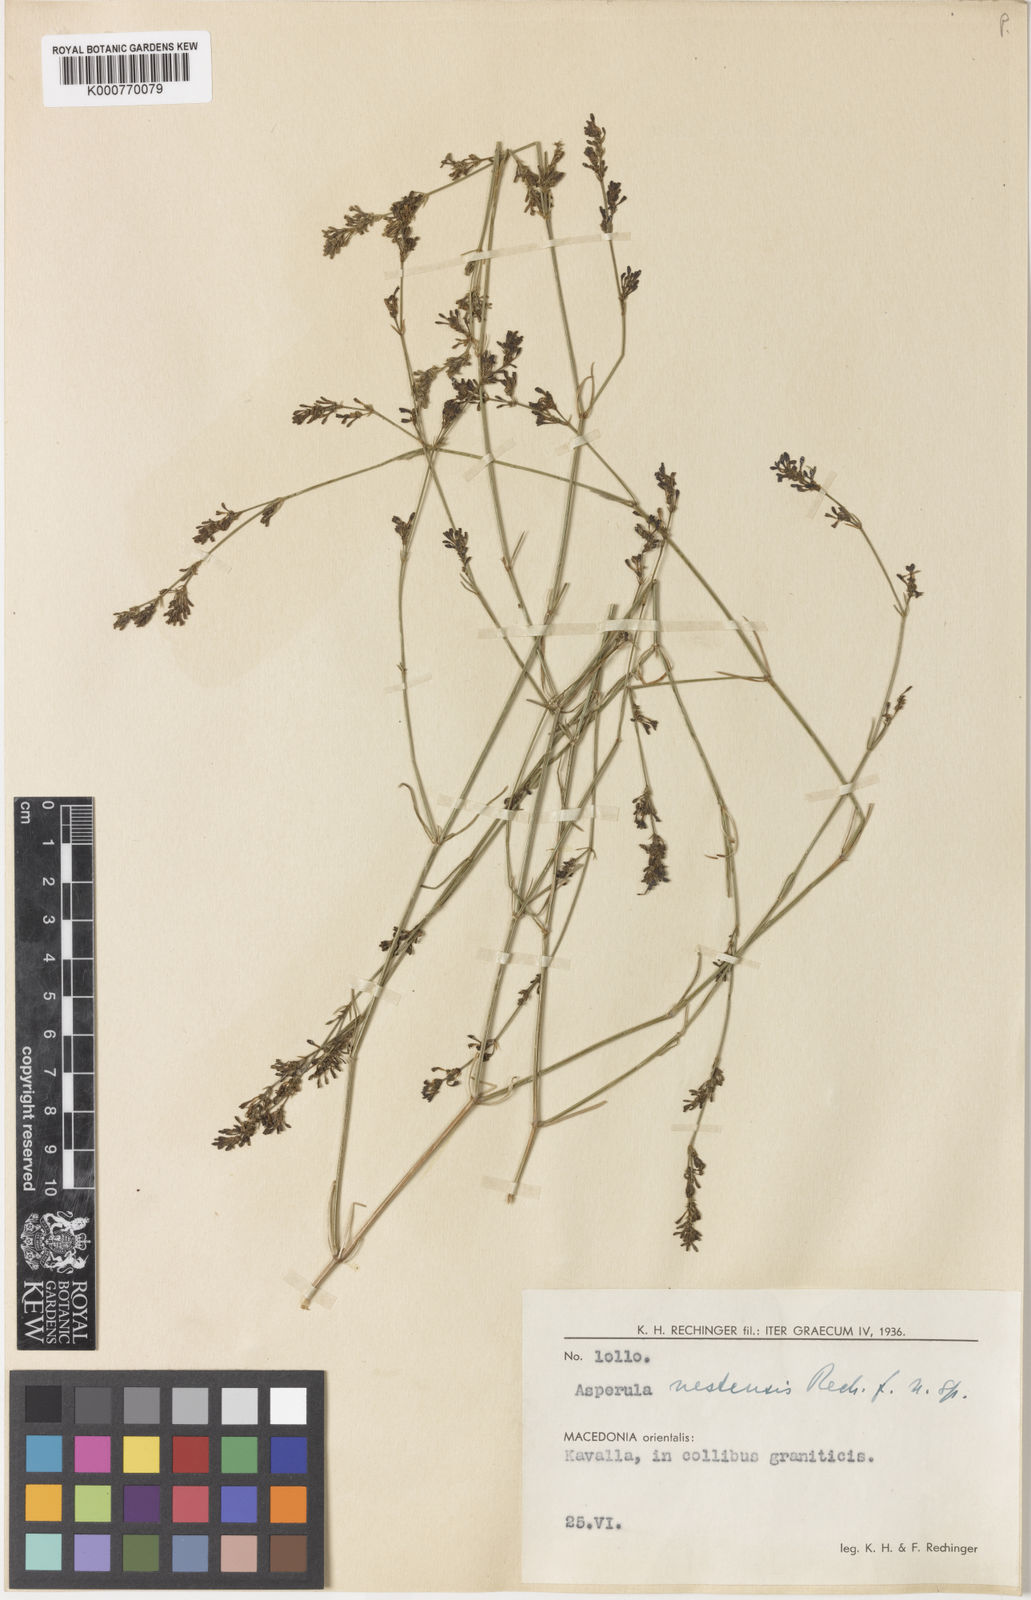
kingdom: Plantae
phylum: Tracheophyta
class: Magnoliopsida
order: Gentianales
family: Rubiaceae
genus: Cynanchica
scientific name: Cynanchica aristata
